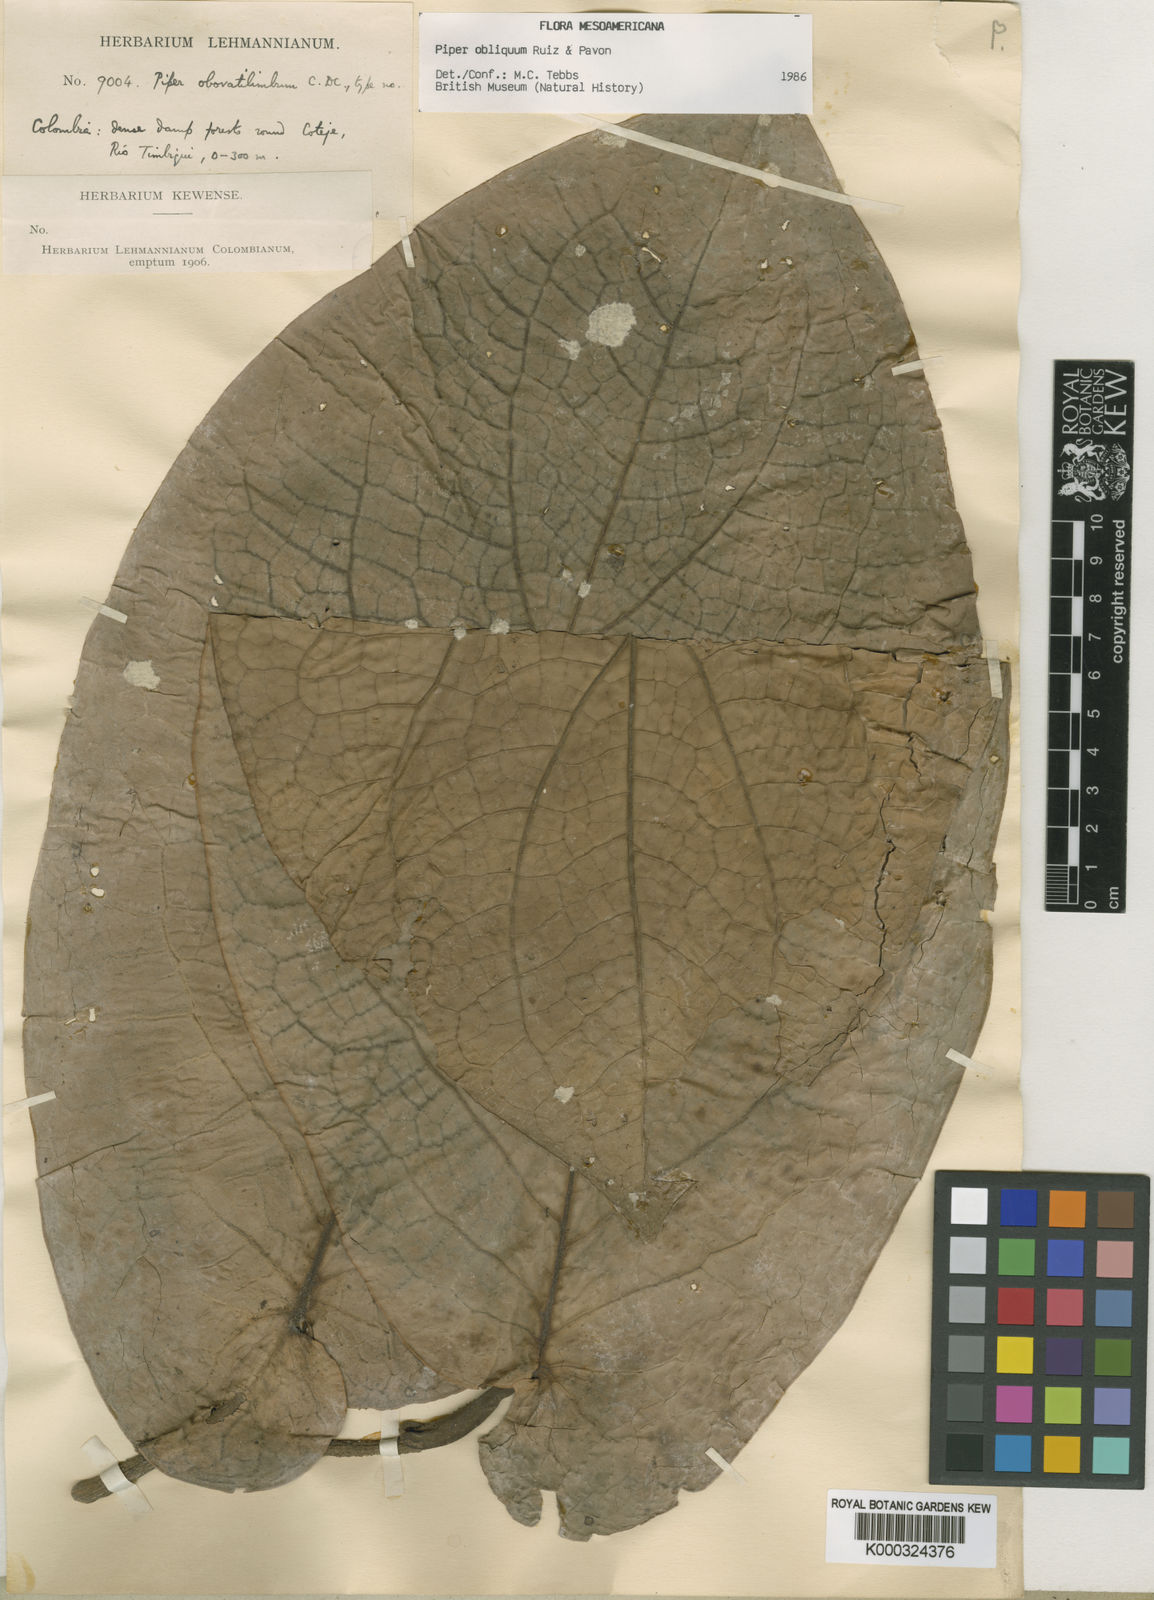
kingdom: Plantae
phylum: Tracheophyta
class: Magnoliopsida
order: Piperales
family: Piperaceae
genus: Piper
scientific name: Piper obliquum
